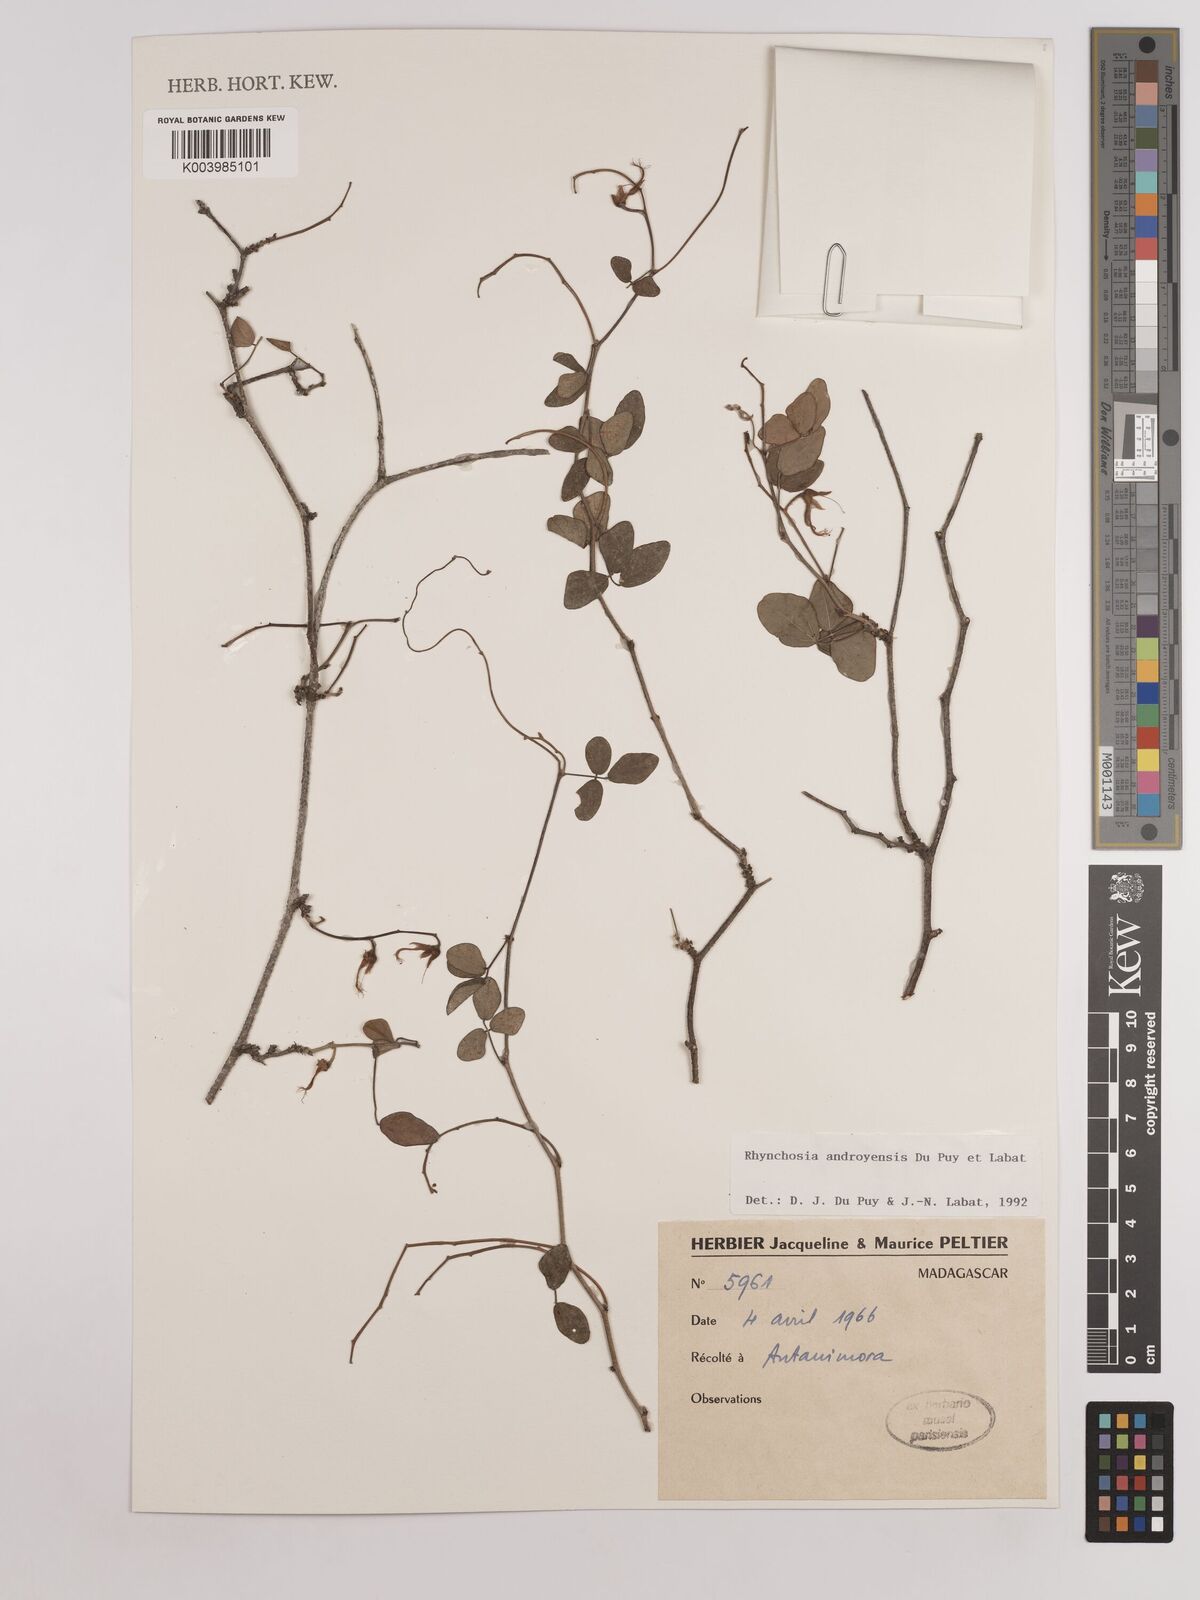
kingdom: Plantae
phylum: Tracheophyta
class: Magnoliopsida
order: Fabales
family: Fabaceae
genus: Rhynchosia
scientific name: Rhynchosia androyensis
